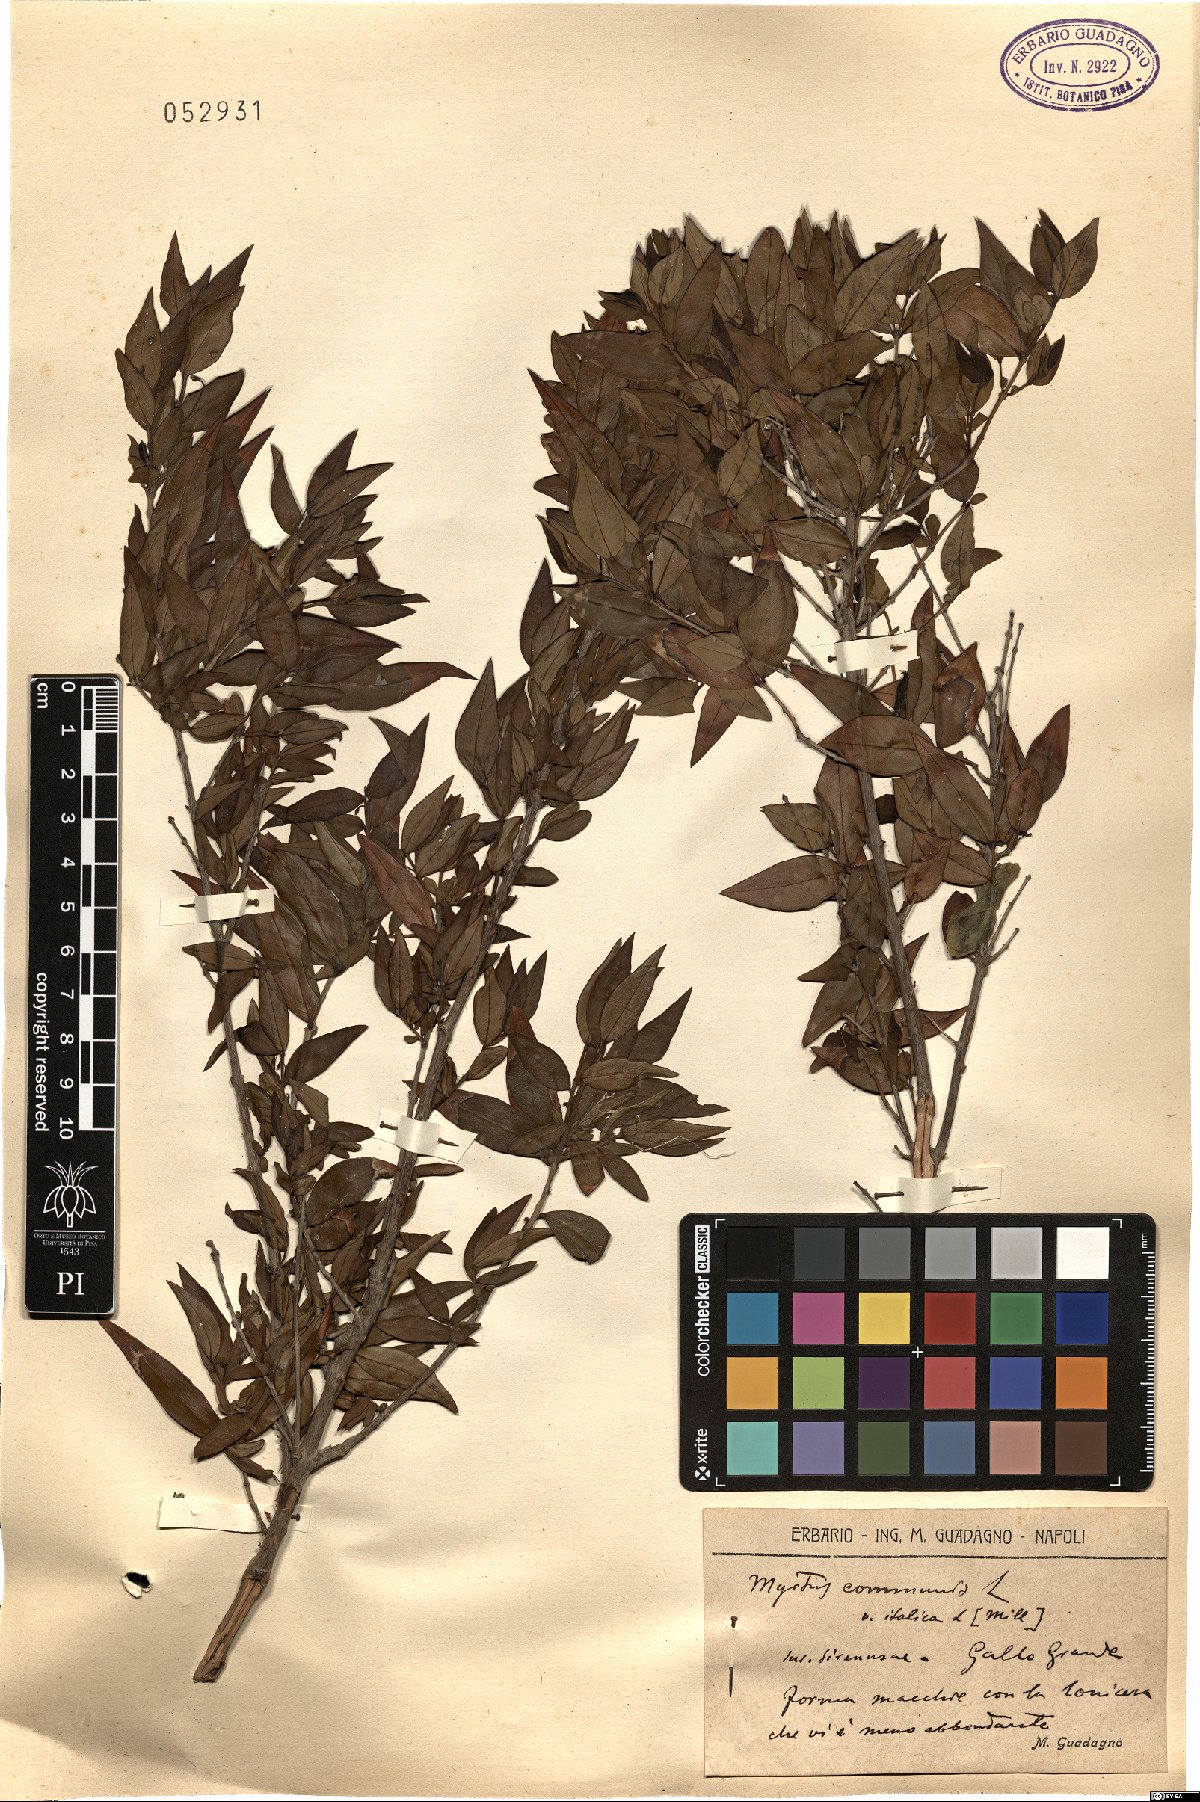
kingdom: Plantae
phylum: Tracheophyta
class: Magnoliopsida
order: Myrtales
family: Myrtaceae
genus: Myrtus
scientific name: Myrtus communis
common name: Myrtle
